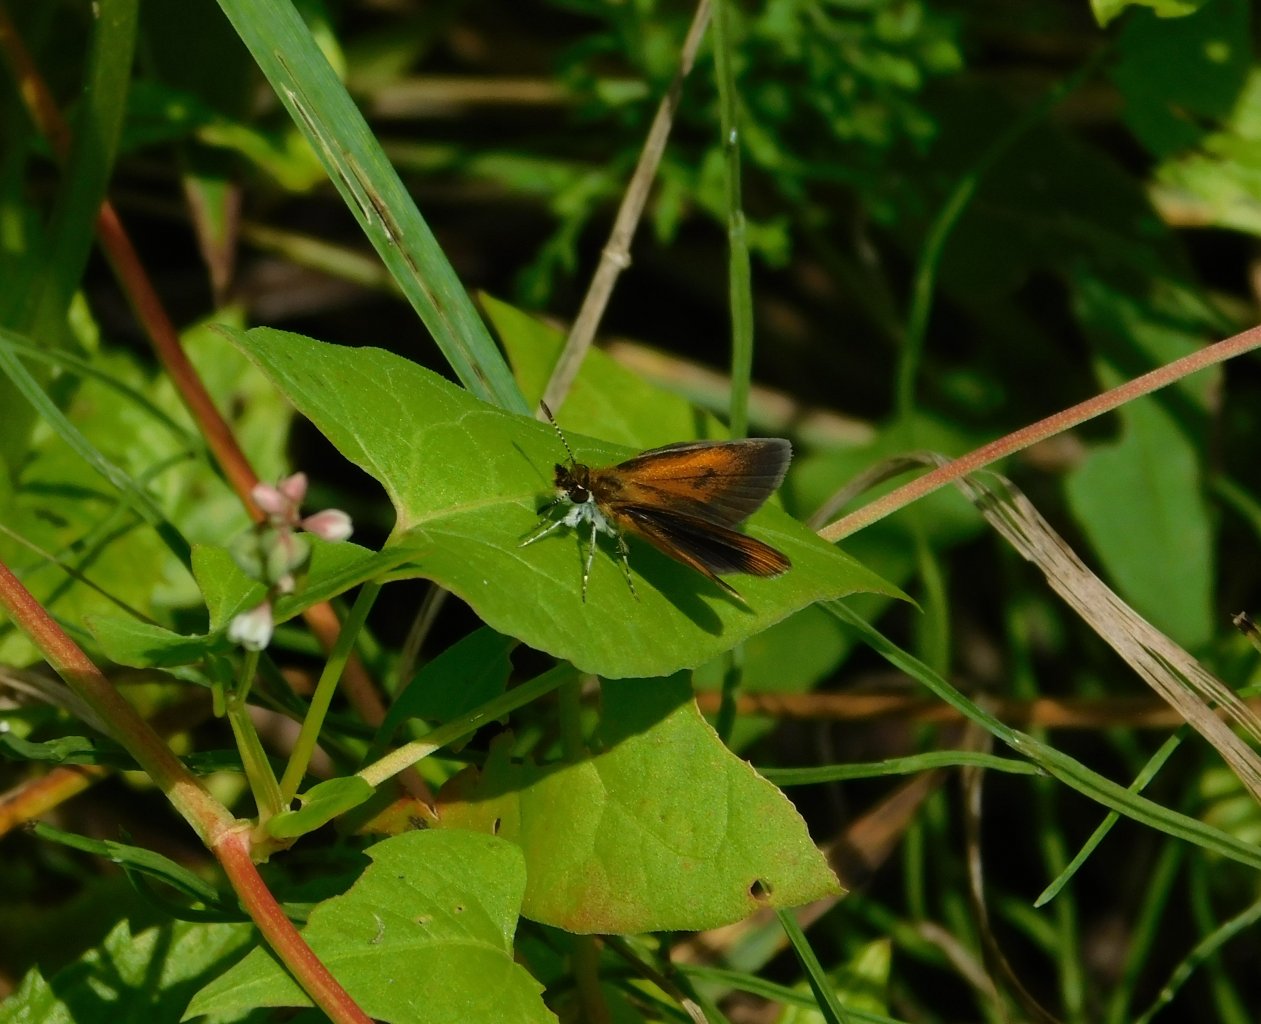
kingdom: Animalia
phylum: Arthropoda
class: Insecta
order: Lepidoptera
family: Hesperiidae
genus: Ancyloxypha
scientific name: Ancyloxypha numitor
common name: Least Skipper
